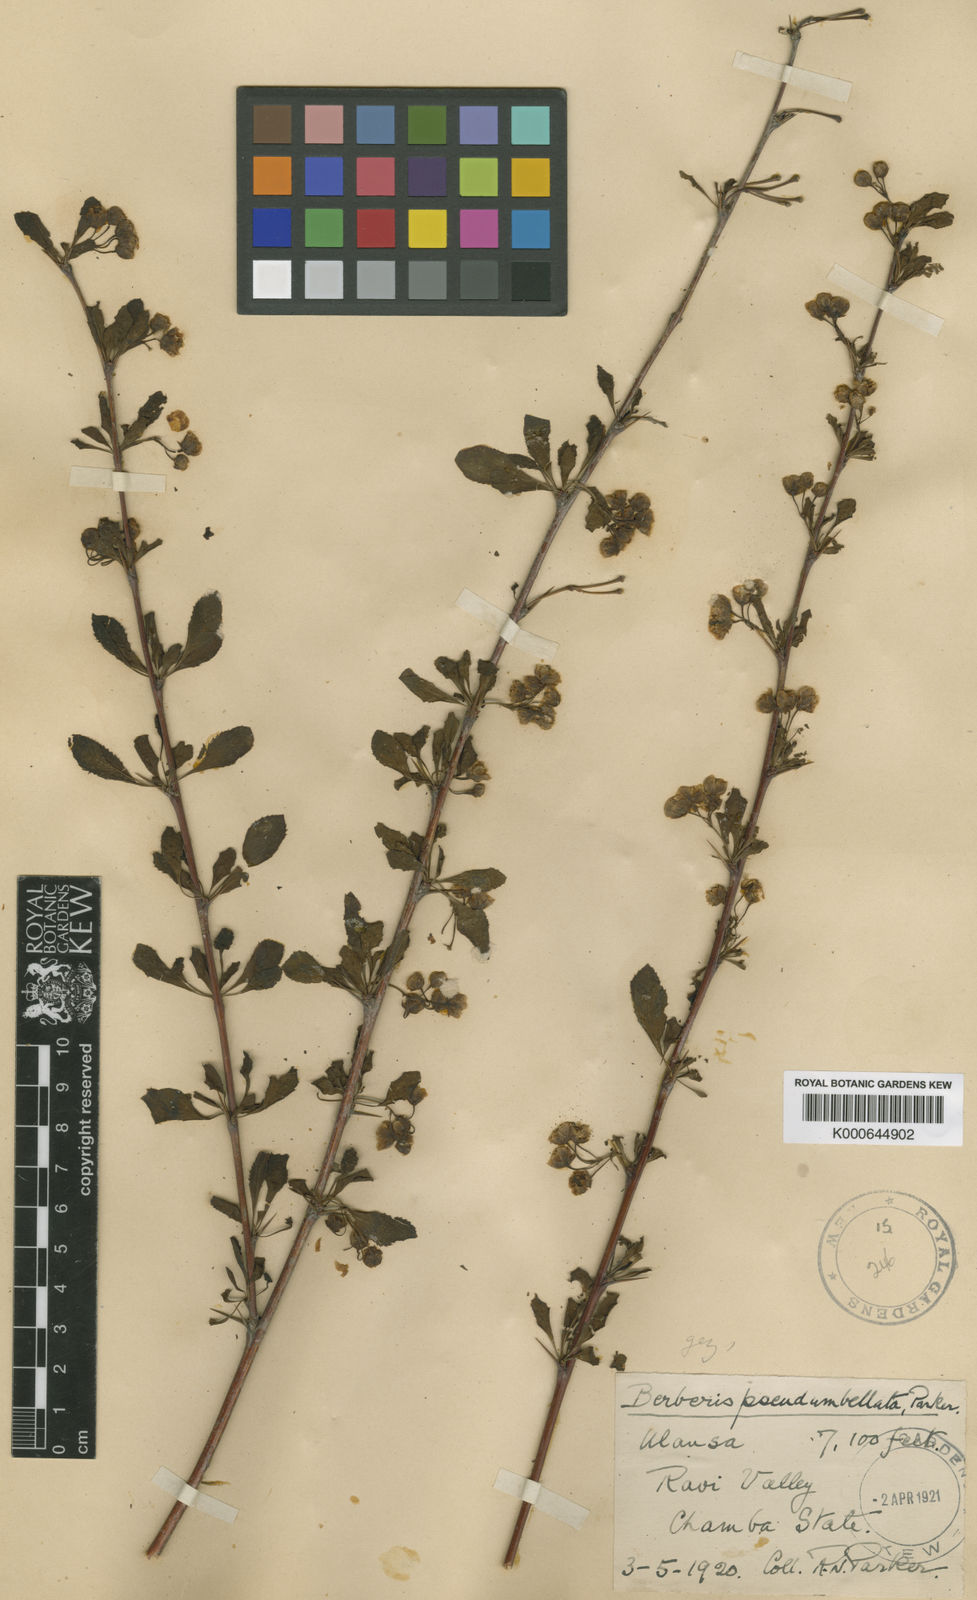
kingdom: Plantae
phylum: Tracheophyta
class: Magnoliopsida
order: Ranunculales
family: Berberidaceae
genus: Berberis
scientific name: Berberis pseudumbellata
